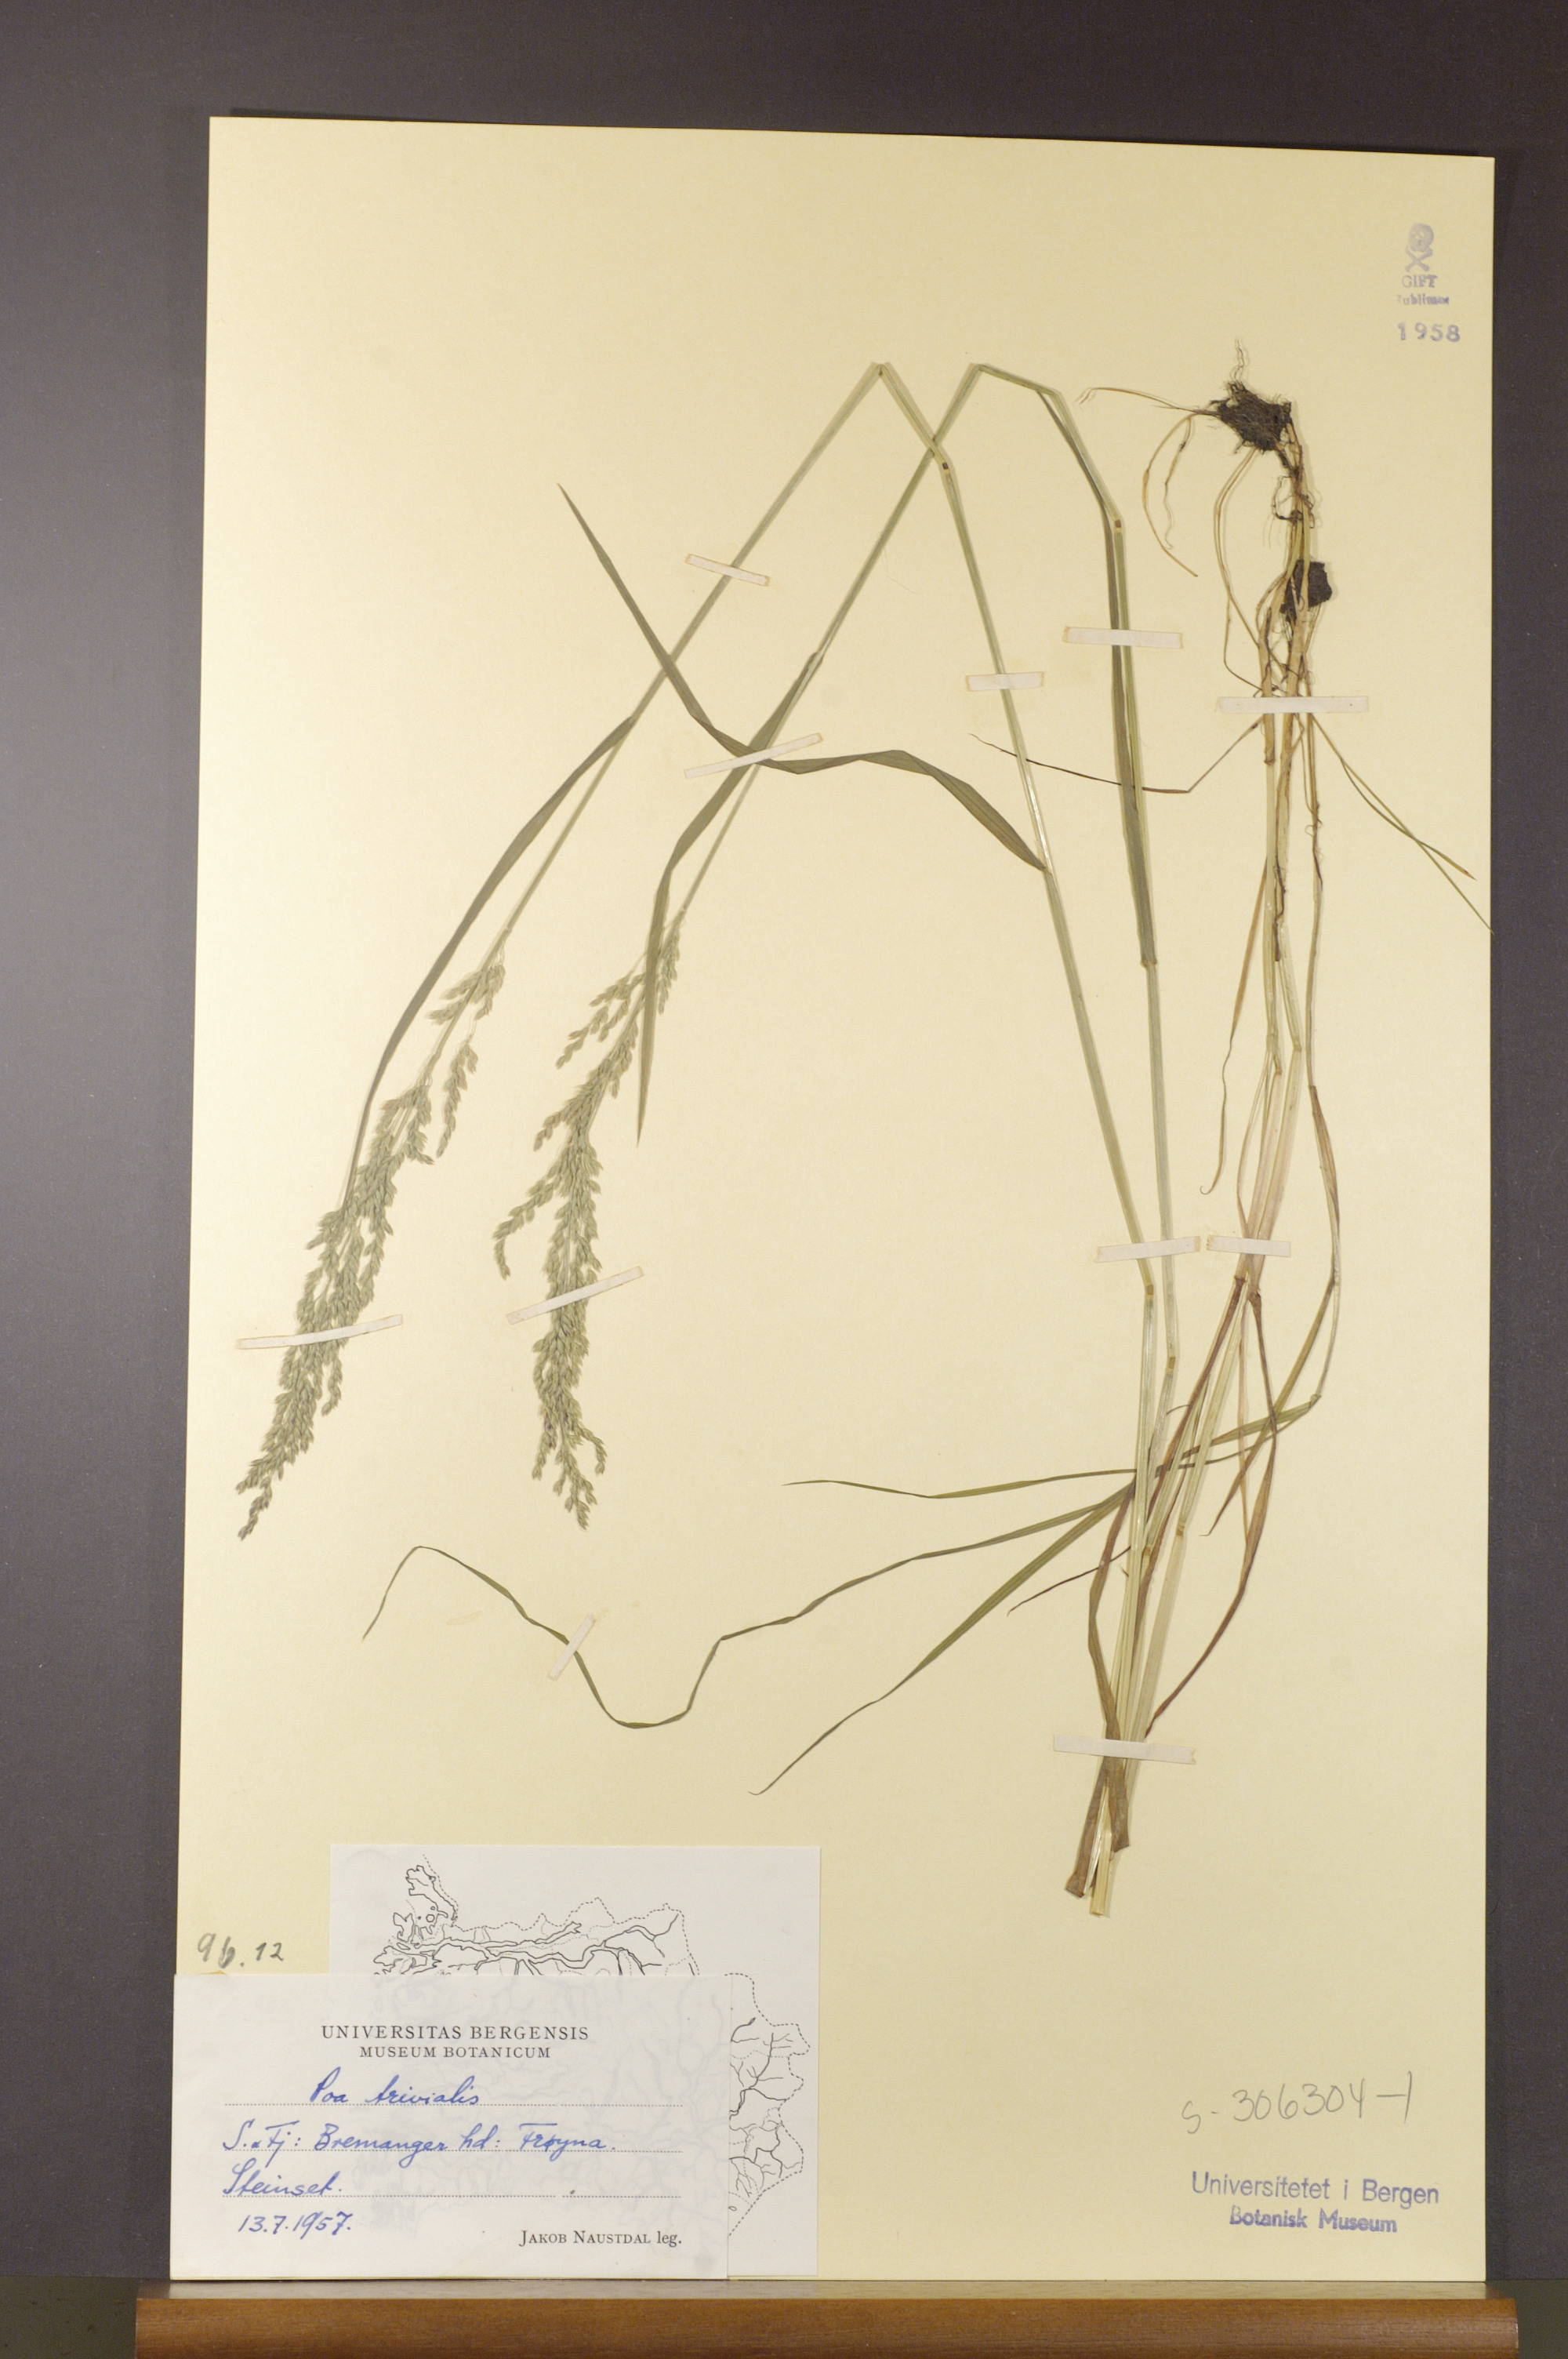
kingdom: Plantae
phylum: Tracheophyta
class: Liliopsida
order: Poales
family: Poaceae
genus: Poa
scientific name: Poa trivialis
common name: Rough bluegrass
